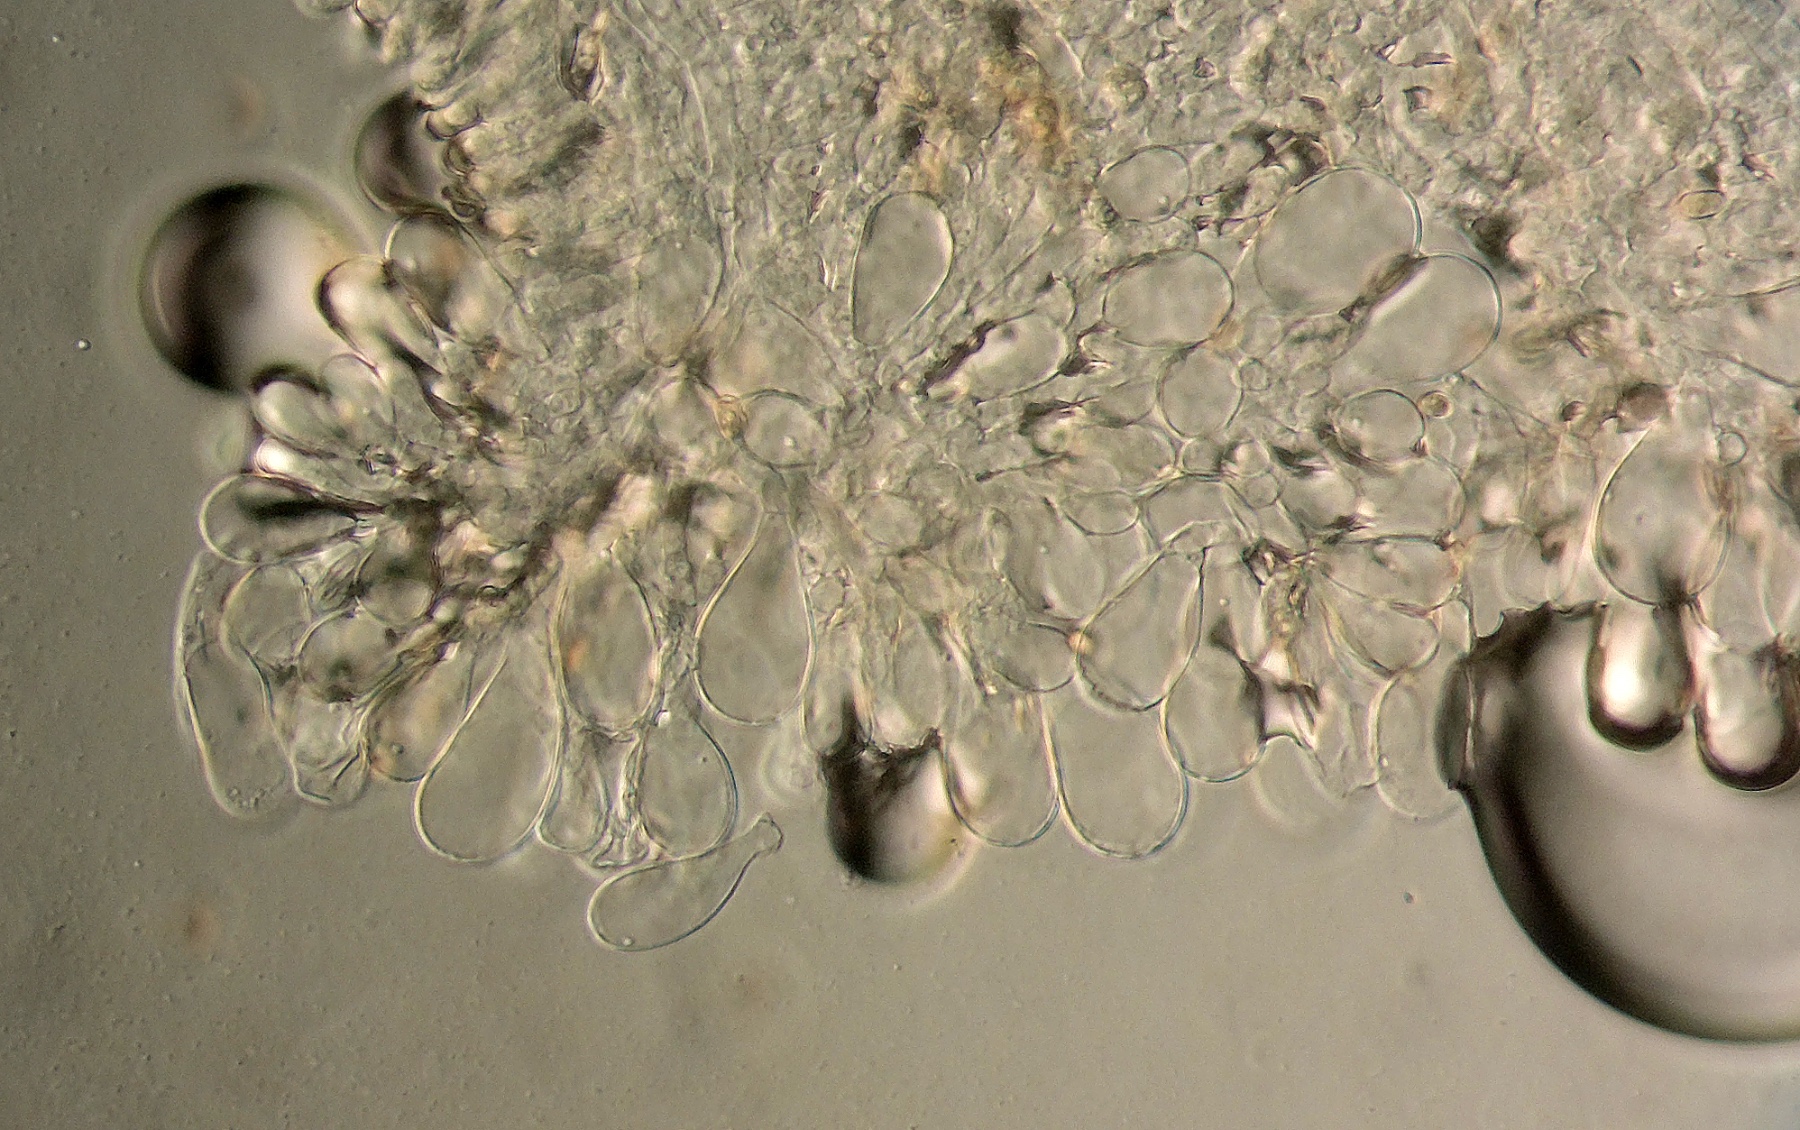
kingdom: Fungi
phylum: Basidiomycota
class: Agaricomycetes
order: Agaricales
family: Inocybaceae
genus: Inosperma
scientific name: Inosperma
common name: strågul trævlhat
